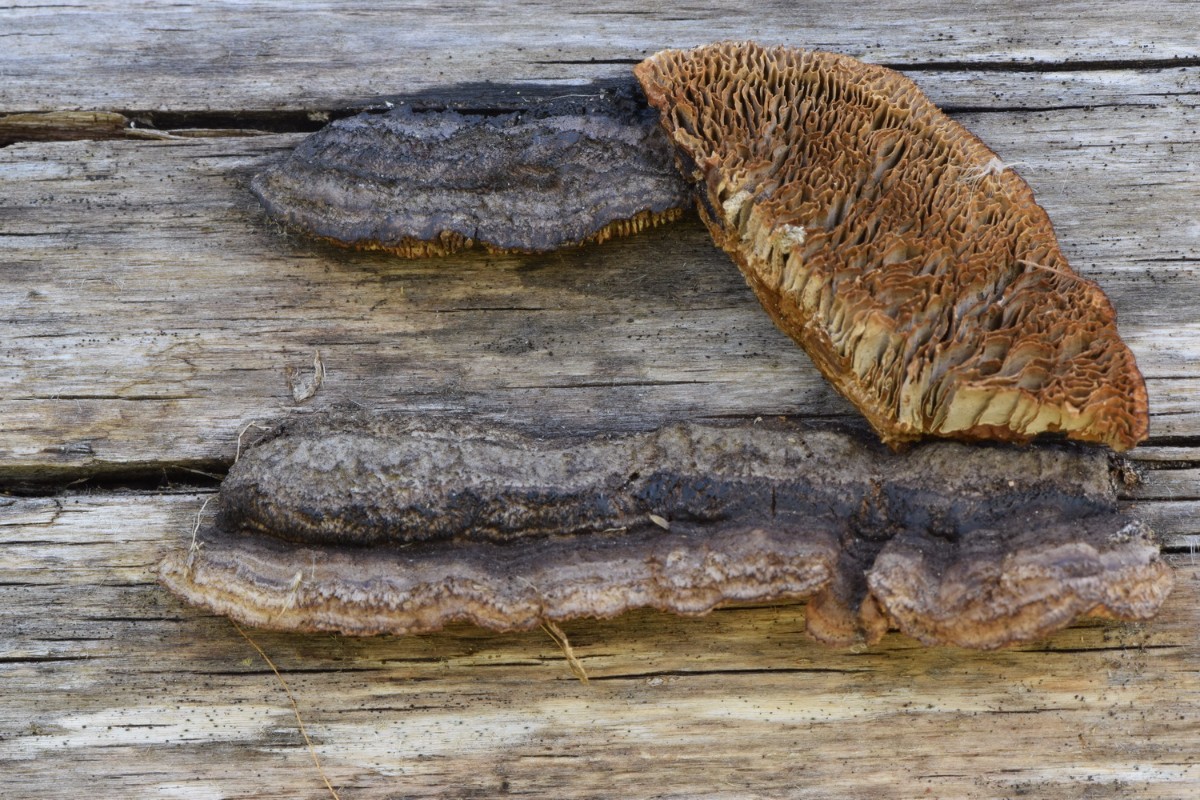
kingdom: Fungi
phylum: Basidiomycota
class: Agaricomycetes
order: Gloeophyllales
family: Gloeophyllaceae
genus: Gloeophyllum
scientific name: Gloeophyllum sepiarium
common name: fyrre-korkhat
